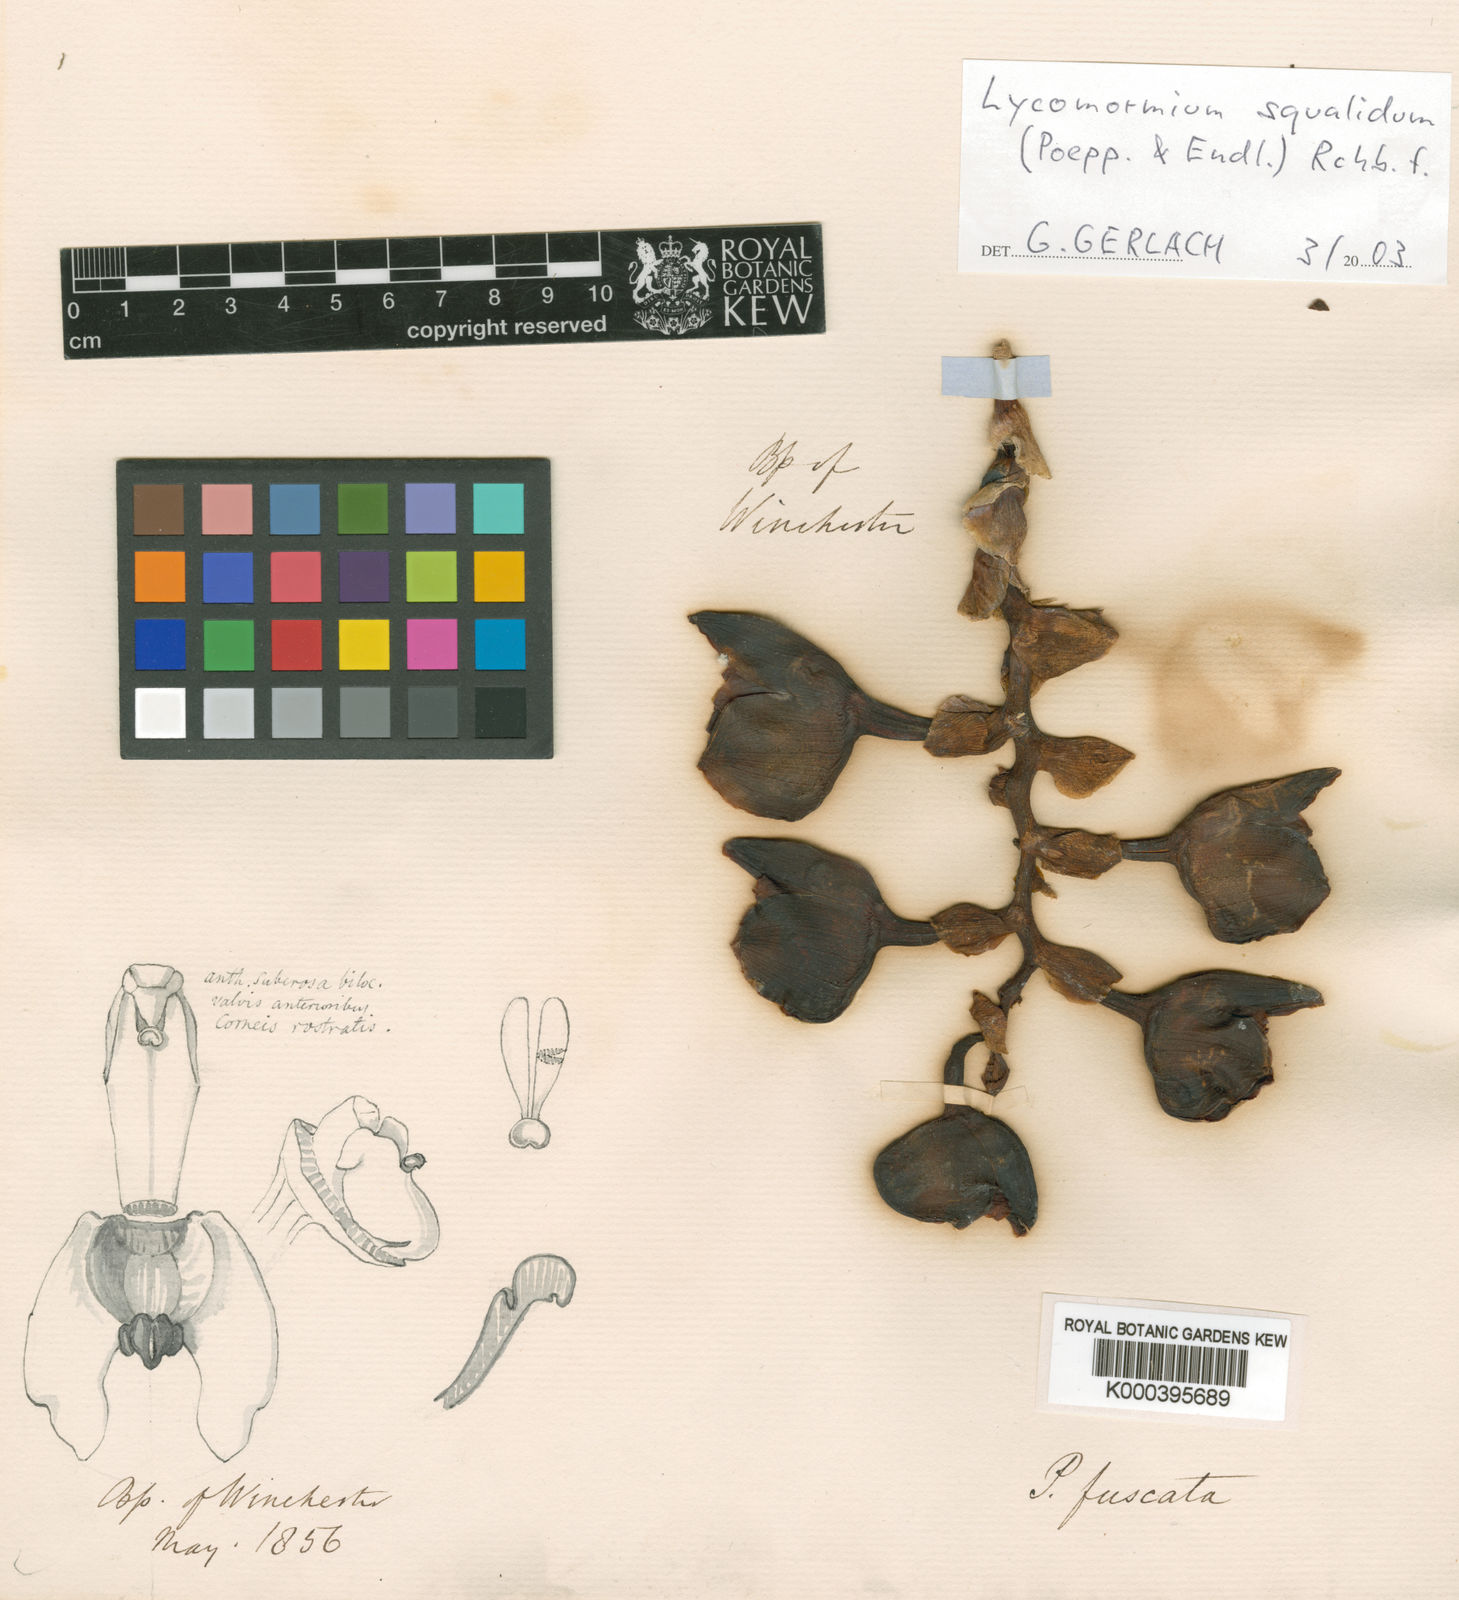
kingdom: Plantae
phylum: Tracheophyta
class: Liliopsida
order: Asparagales
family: Orchidaceae
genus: Lycomormium
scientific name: Lycomormium squalidum
